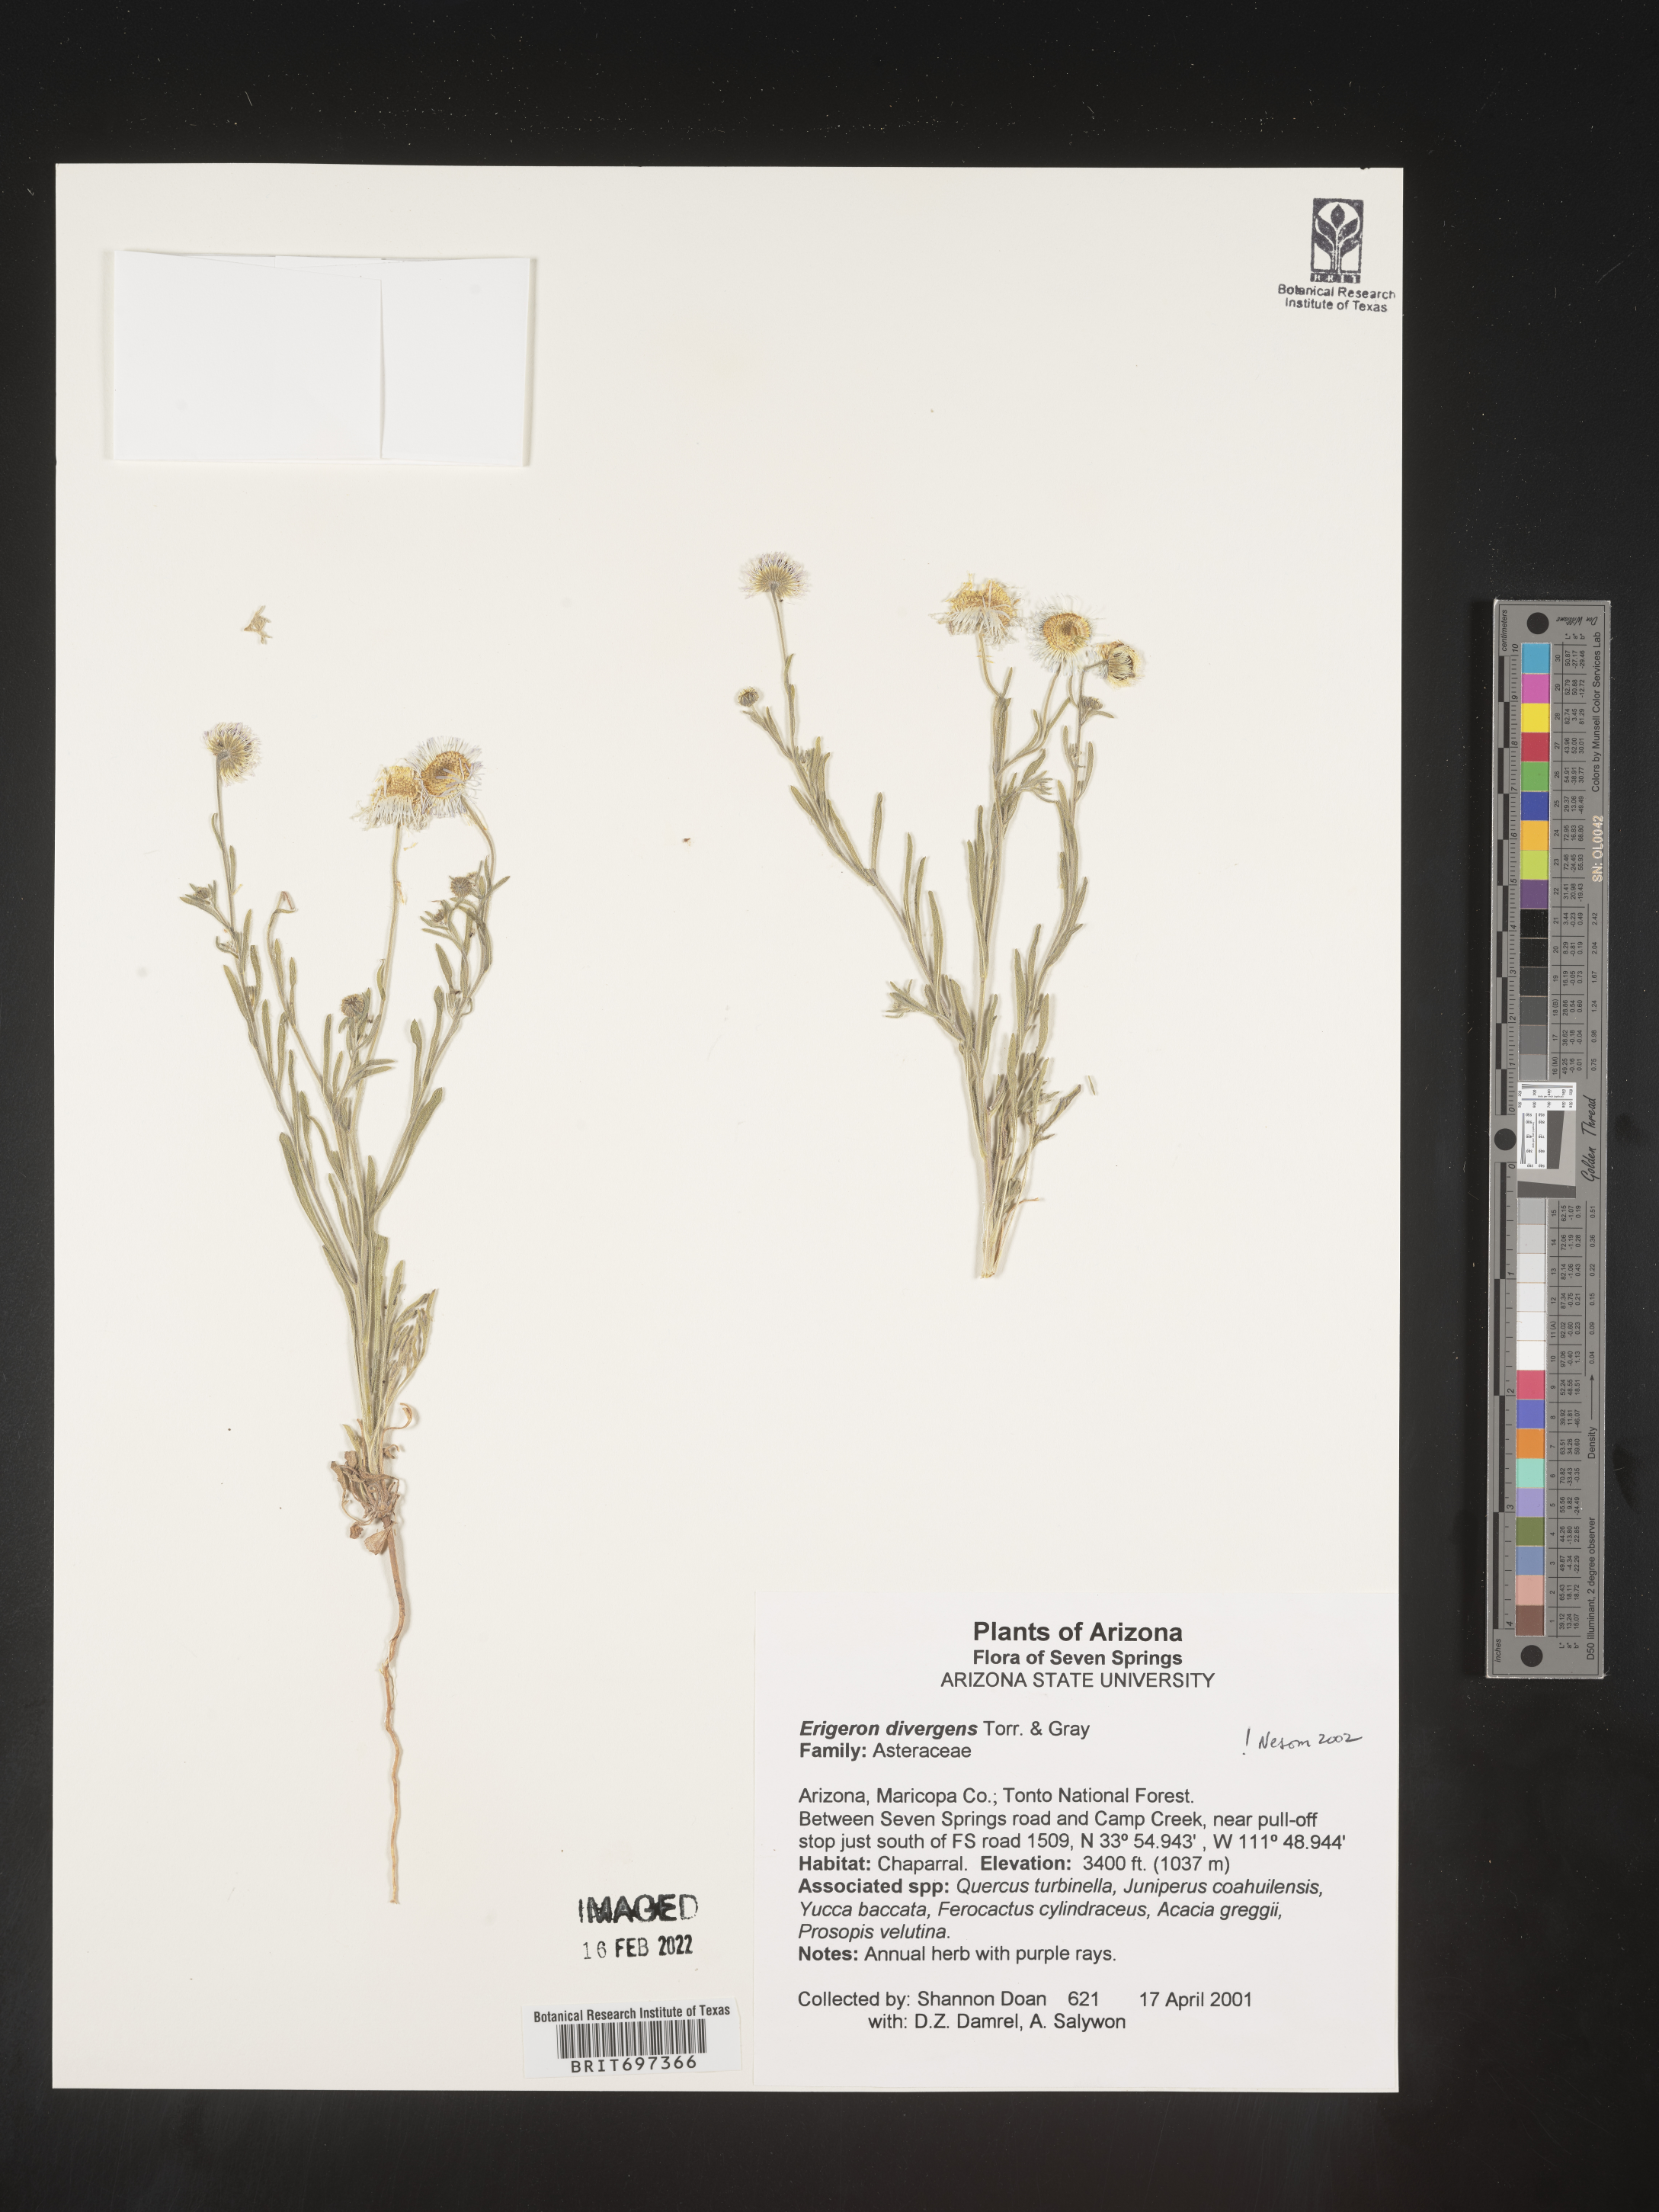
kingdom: Plantae
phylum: Tracheophyta
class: Magnoliopsida
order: Asterales
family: Asteraceae
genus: Erigeron
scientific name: Erigeron divergens
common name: Diffuse fleabane
